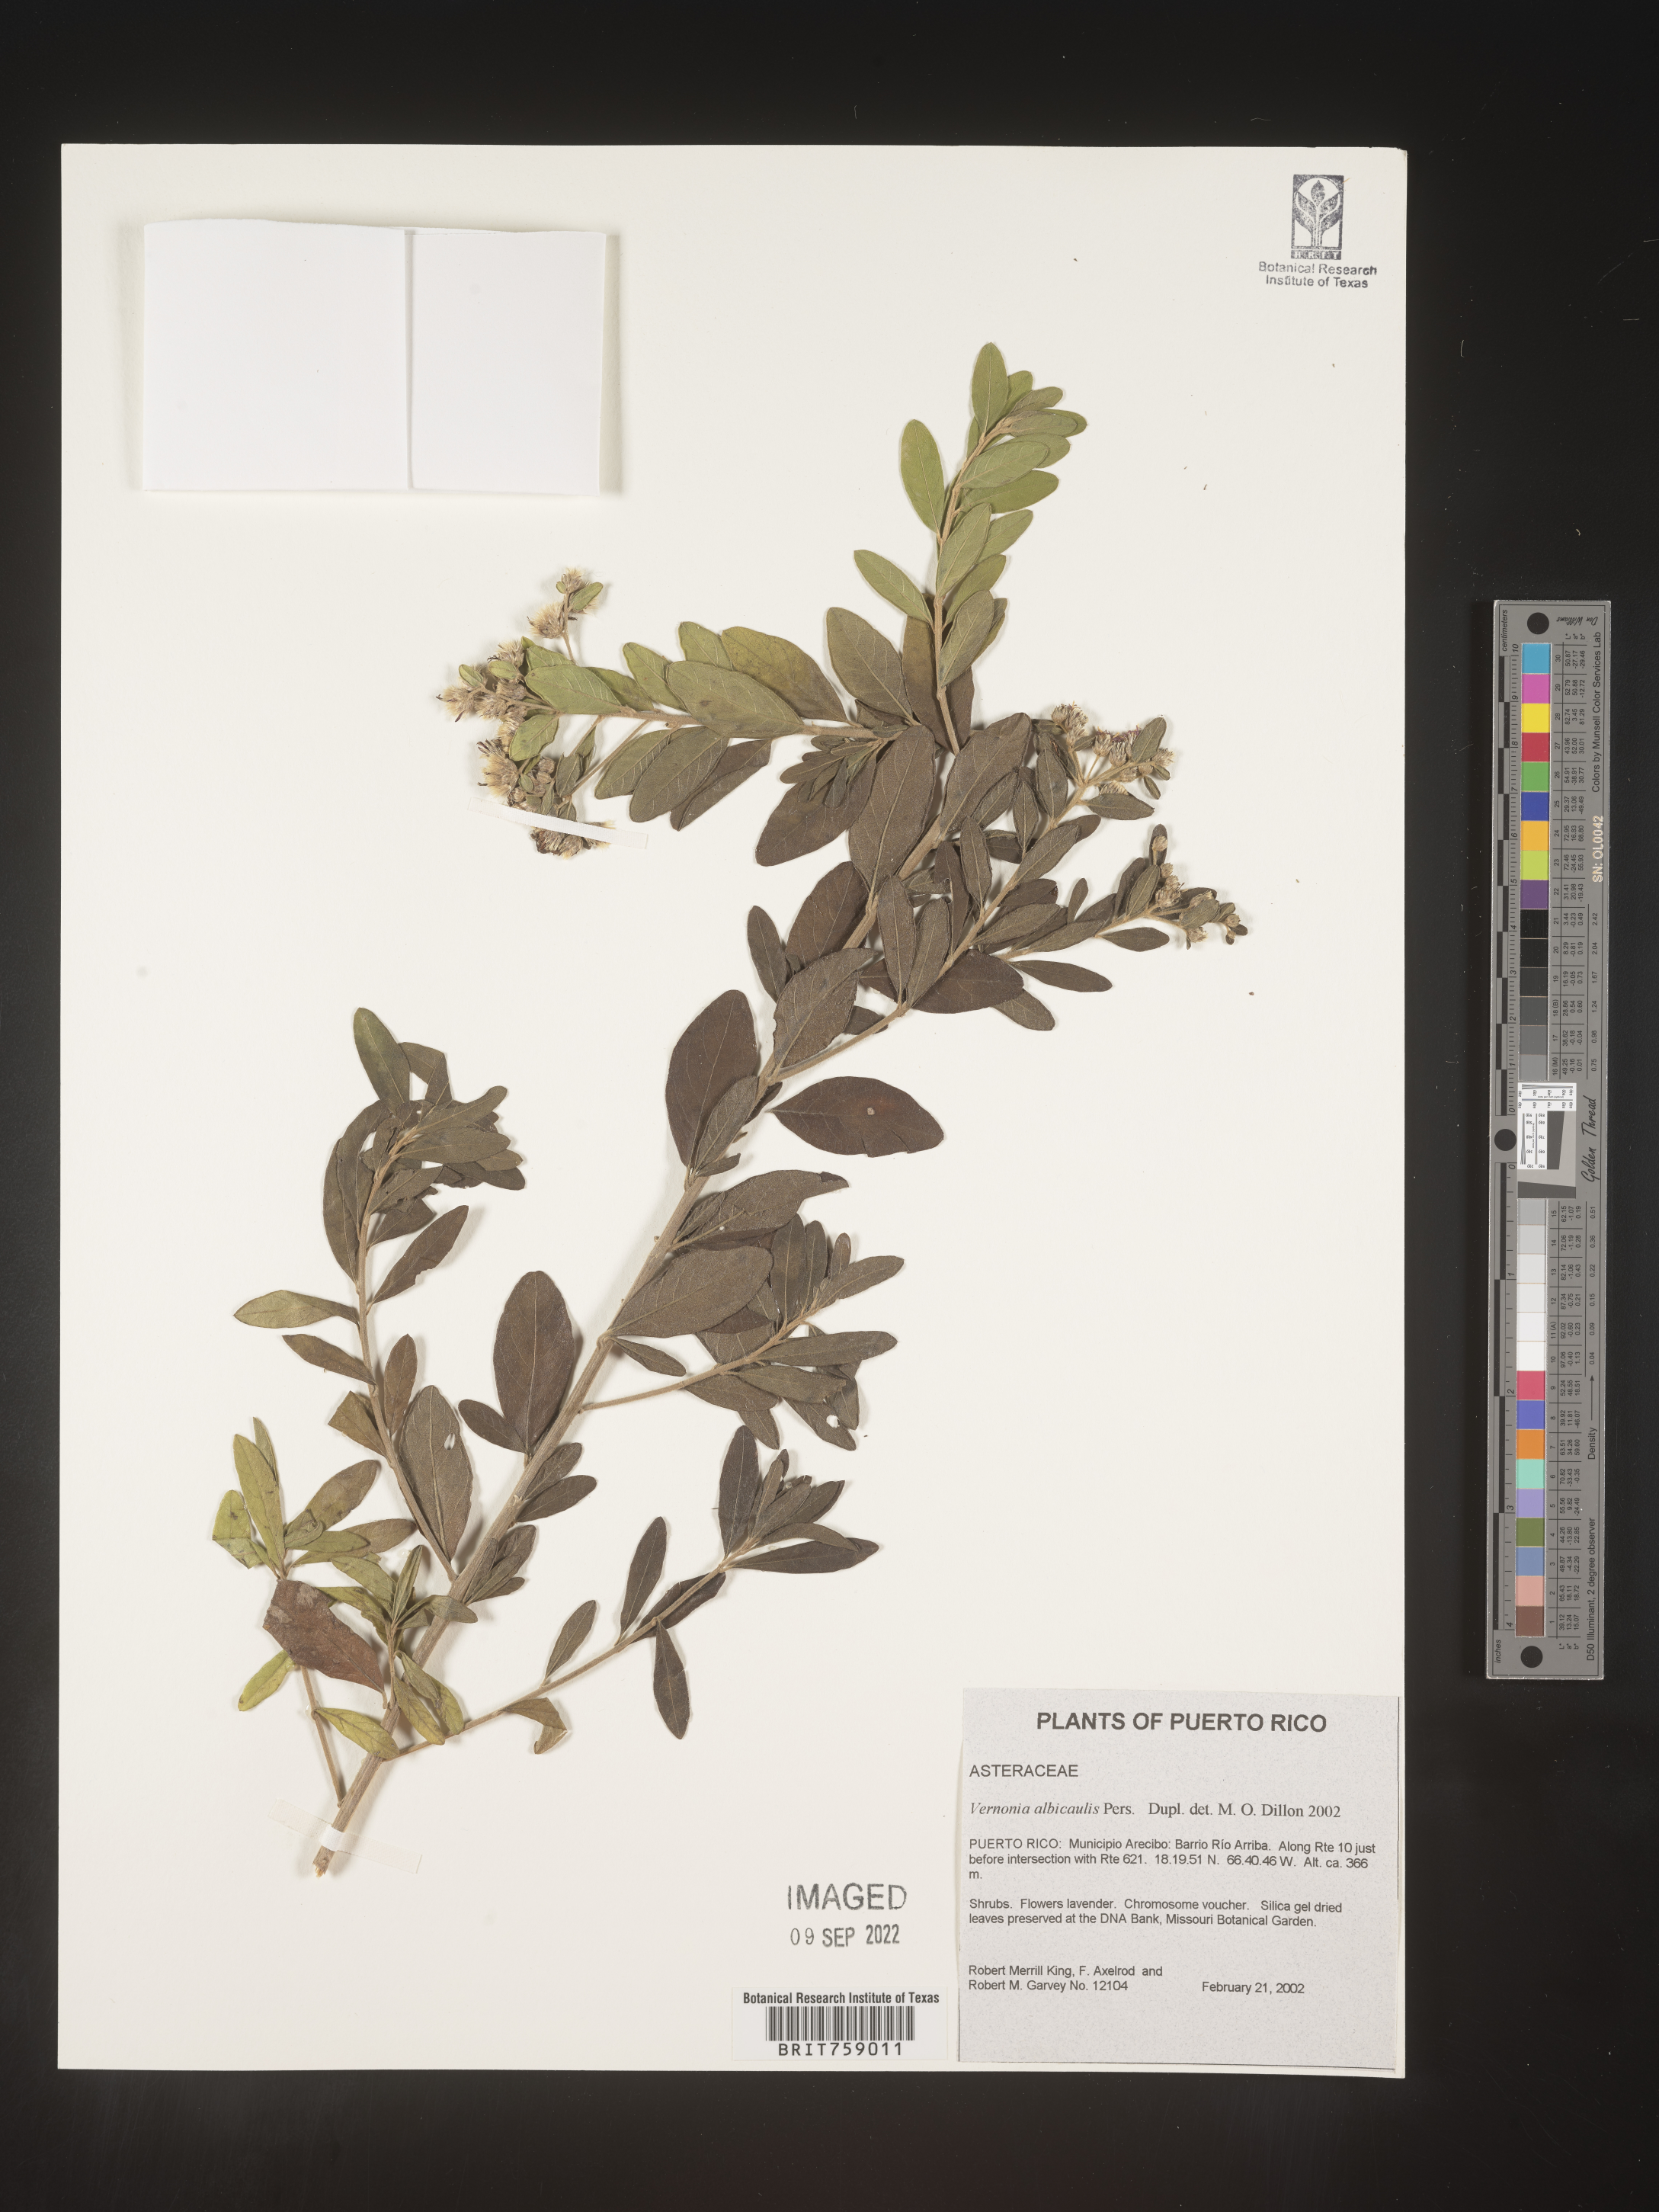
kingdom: Plantae
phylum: Tracheophyta
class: Magnoliopsida
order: Asterales
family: Asteraceae
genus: Vernonia
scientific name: Vernonia
